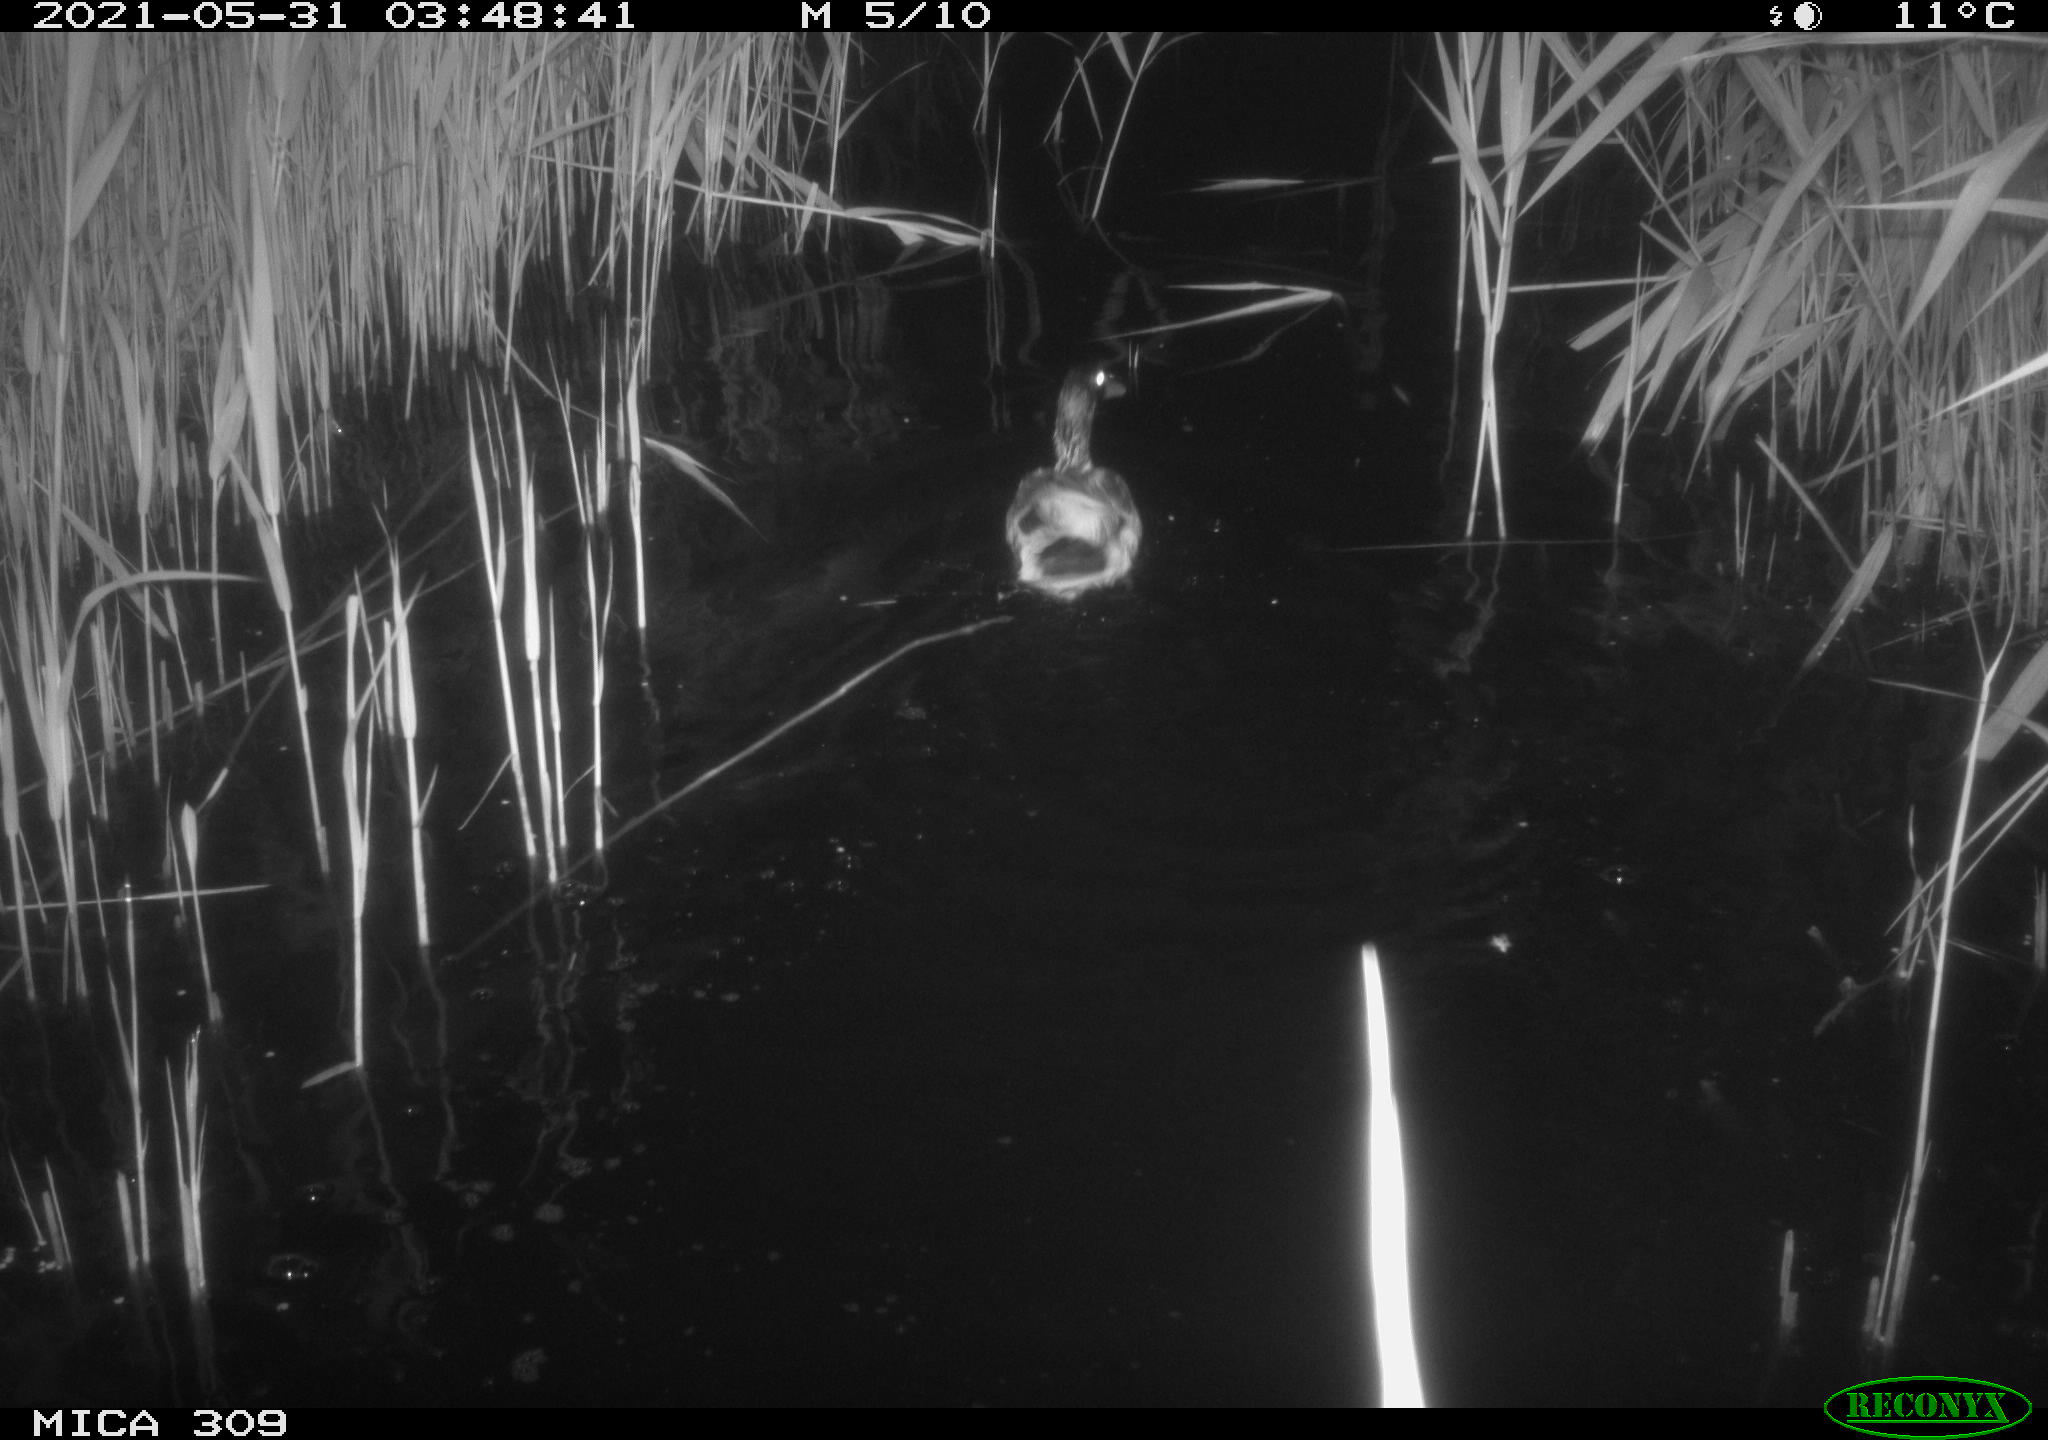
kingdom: Animalia
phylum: Chordata
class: Aves
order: Anseriformes
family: Anatidae
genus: Anas
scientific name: Anas platyrhynchos
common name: Mallard
